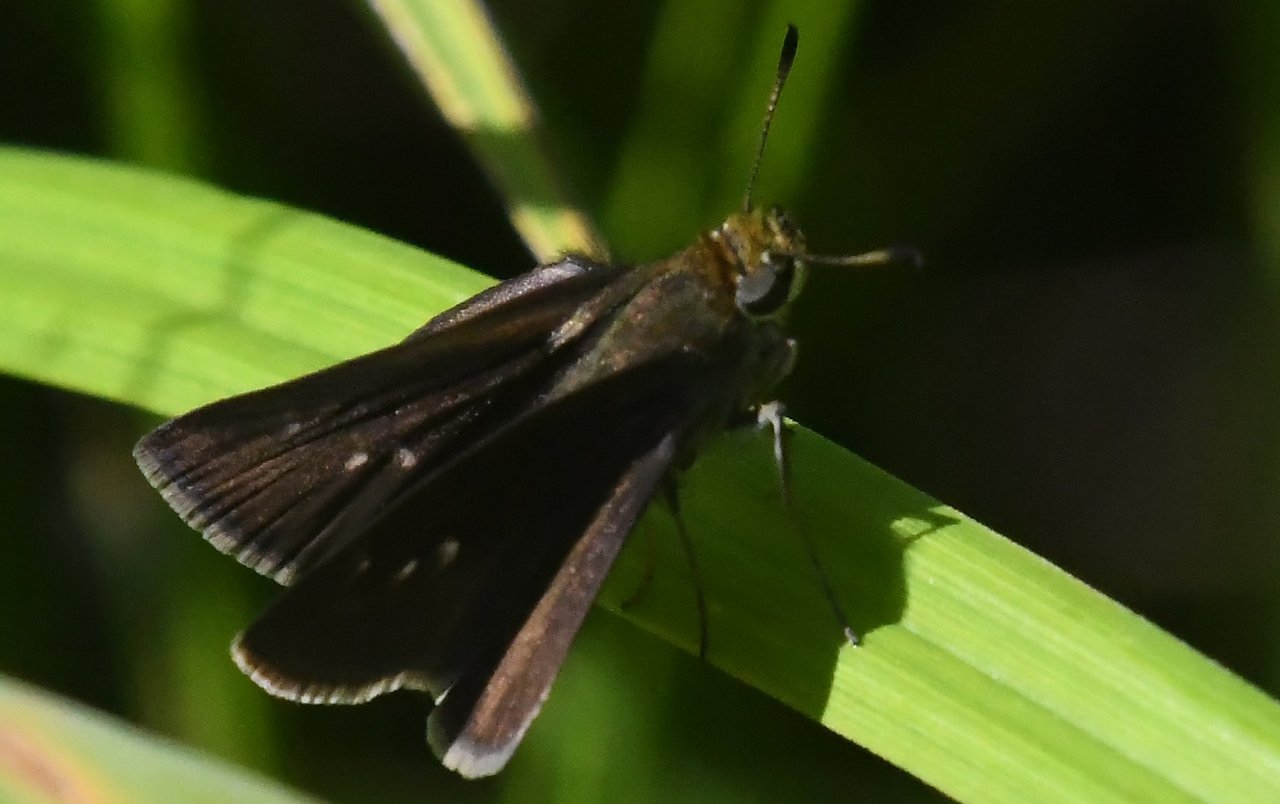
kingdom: Animalia
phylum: Arthropoda
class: Insecta
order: Lepidoptera
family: Hesperiidae
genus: Euphyes
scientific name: Euphyes vestris
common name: Dun Skipper
